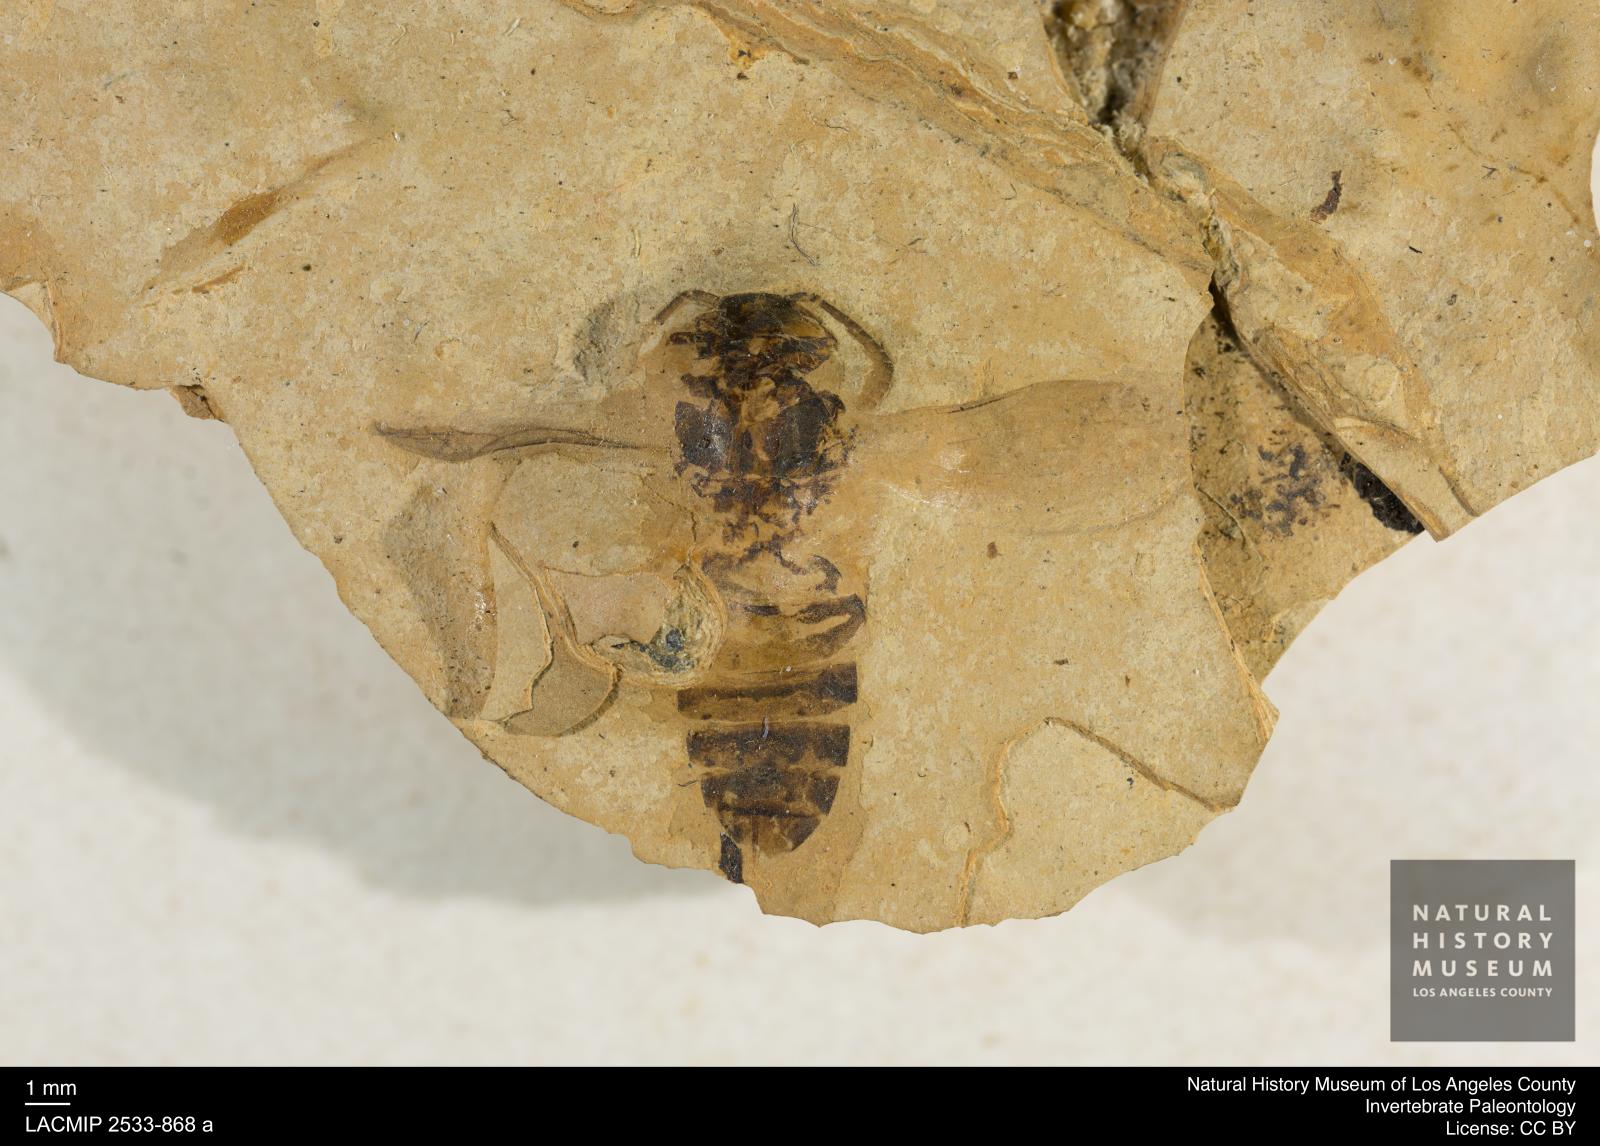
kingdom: Animalia
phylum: Arthropoda
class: Insecta
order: Hymenoptera
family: Vespidae
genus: Vespa
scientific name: Vespa bilineata
